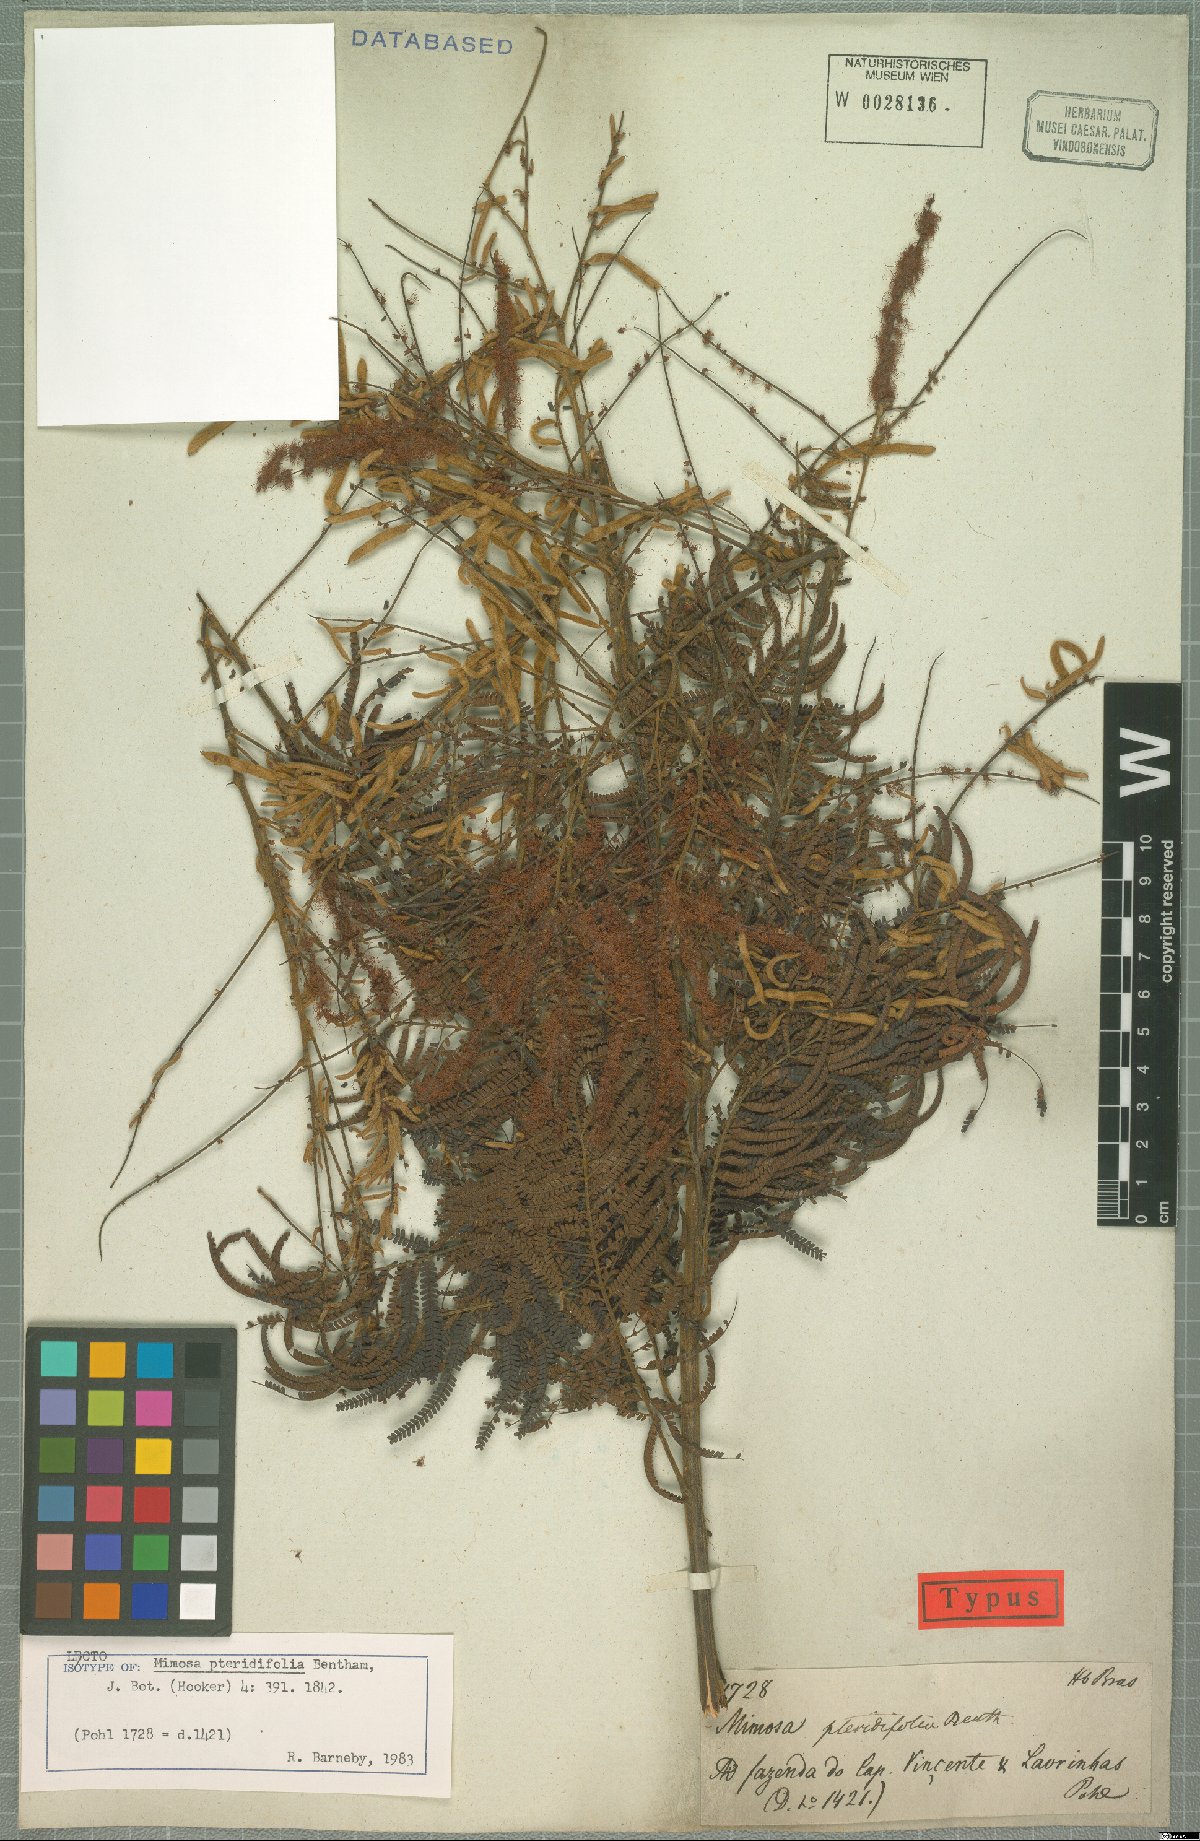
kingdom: Plantae
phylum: Tracheophyta
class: Magnoliopsida
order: Fabales
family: Fabaceae
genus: Mimosa
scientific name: Mimosa pteridifolia
